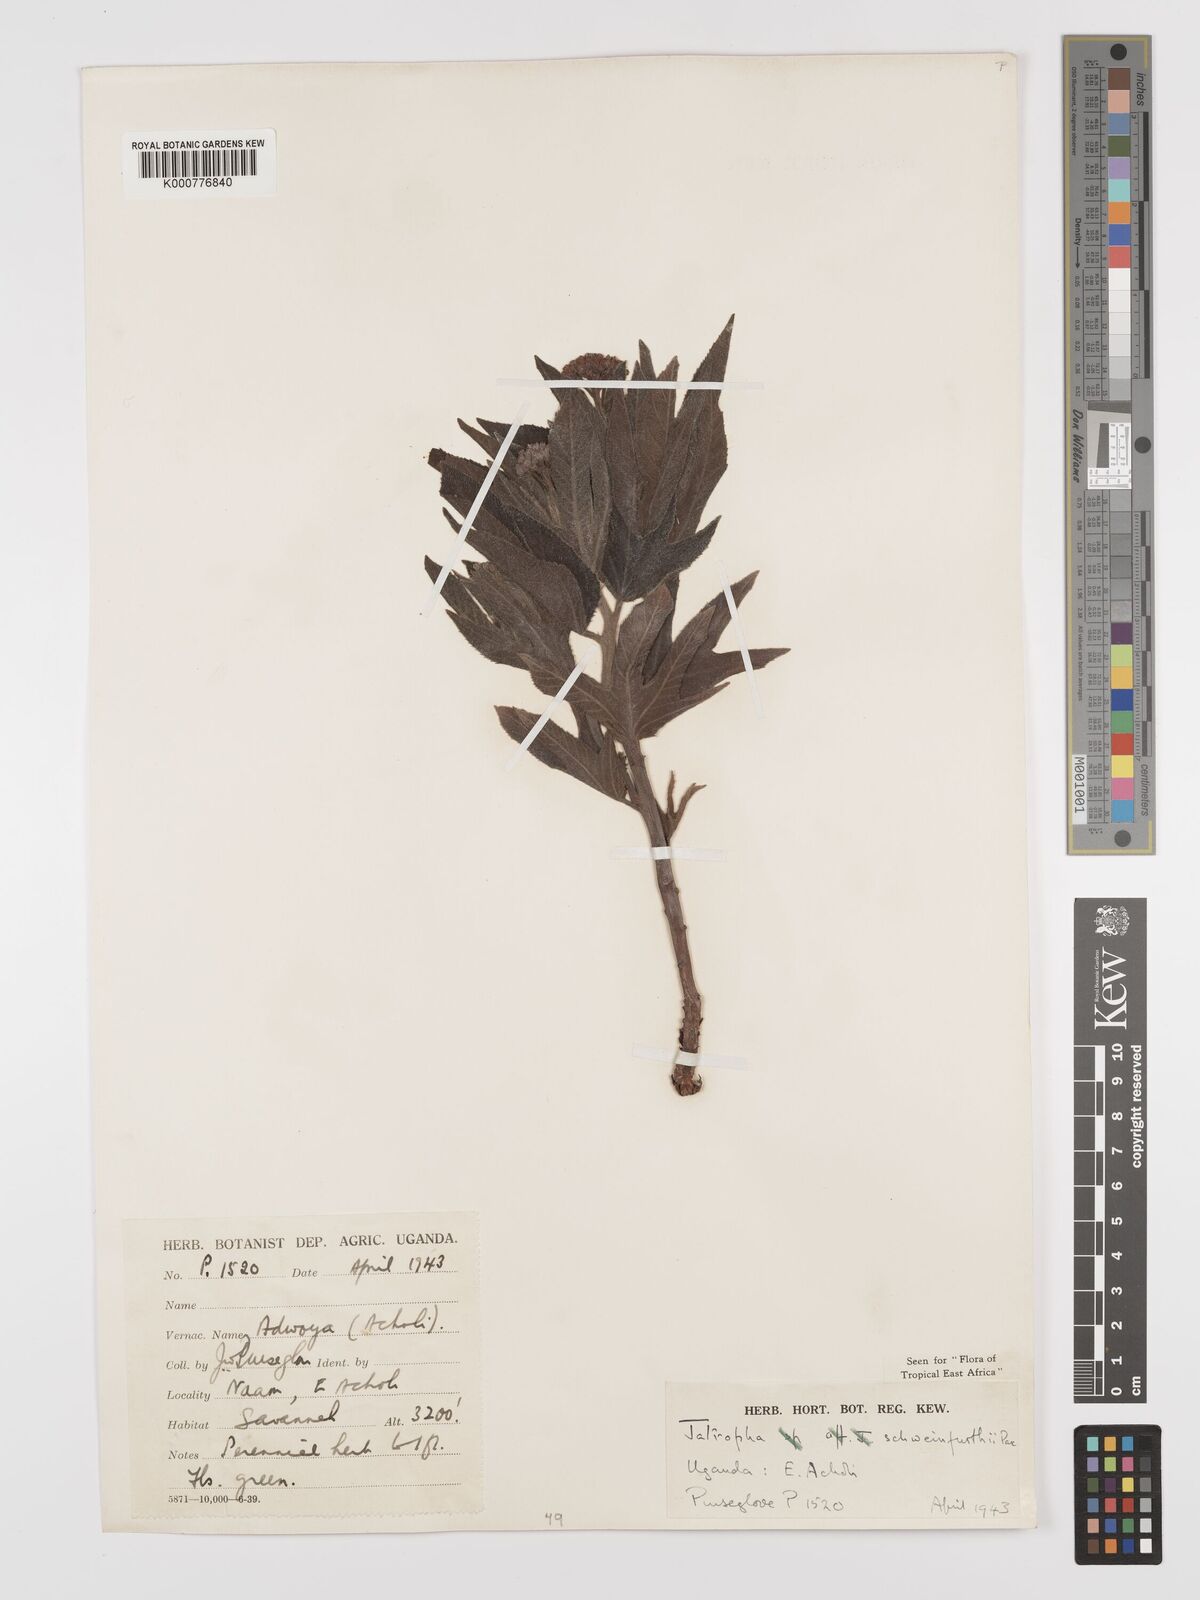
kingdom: Plantae
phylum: Tracheophyta
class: Magnoliopsida
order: Malpighiales
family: Euphorbiaceae
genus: Jatropha
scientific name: Jatropha schweinfurthii
